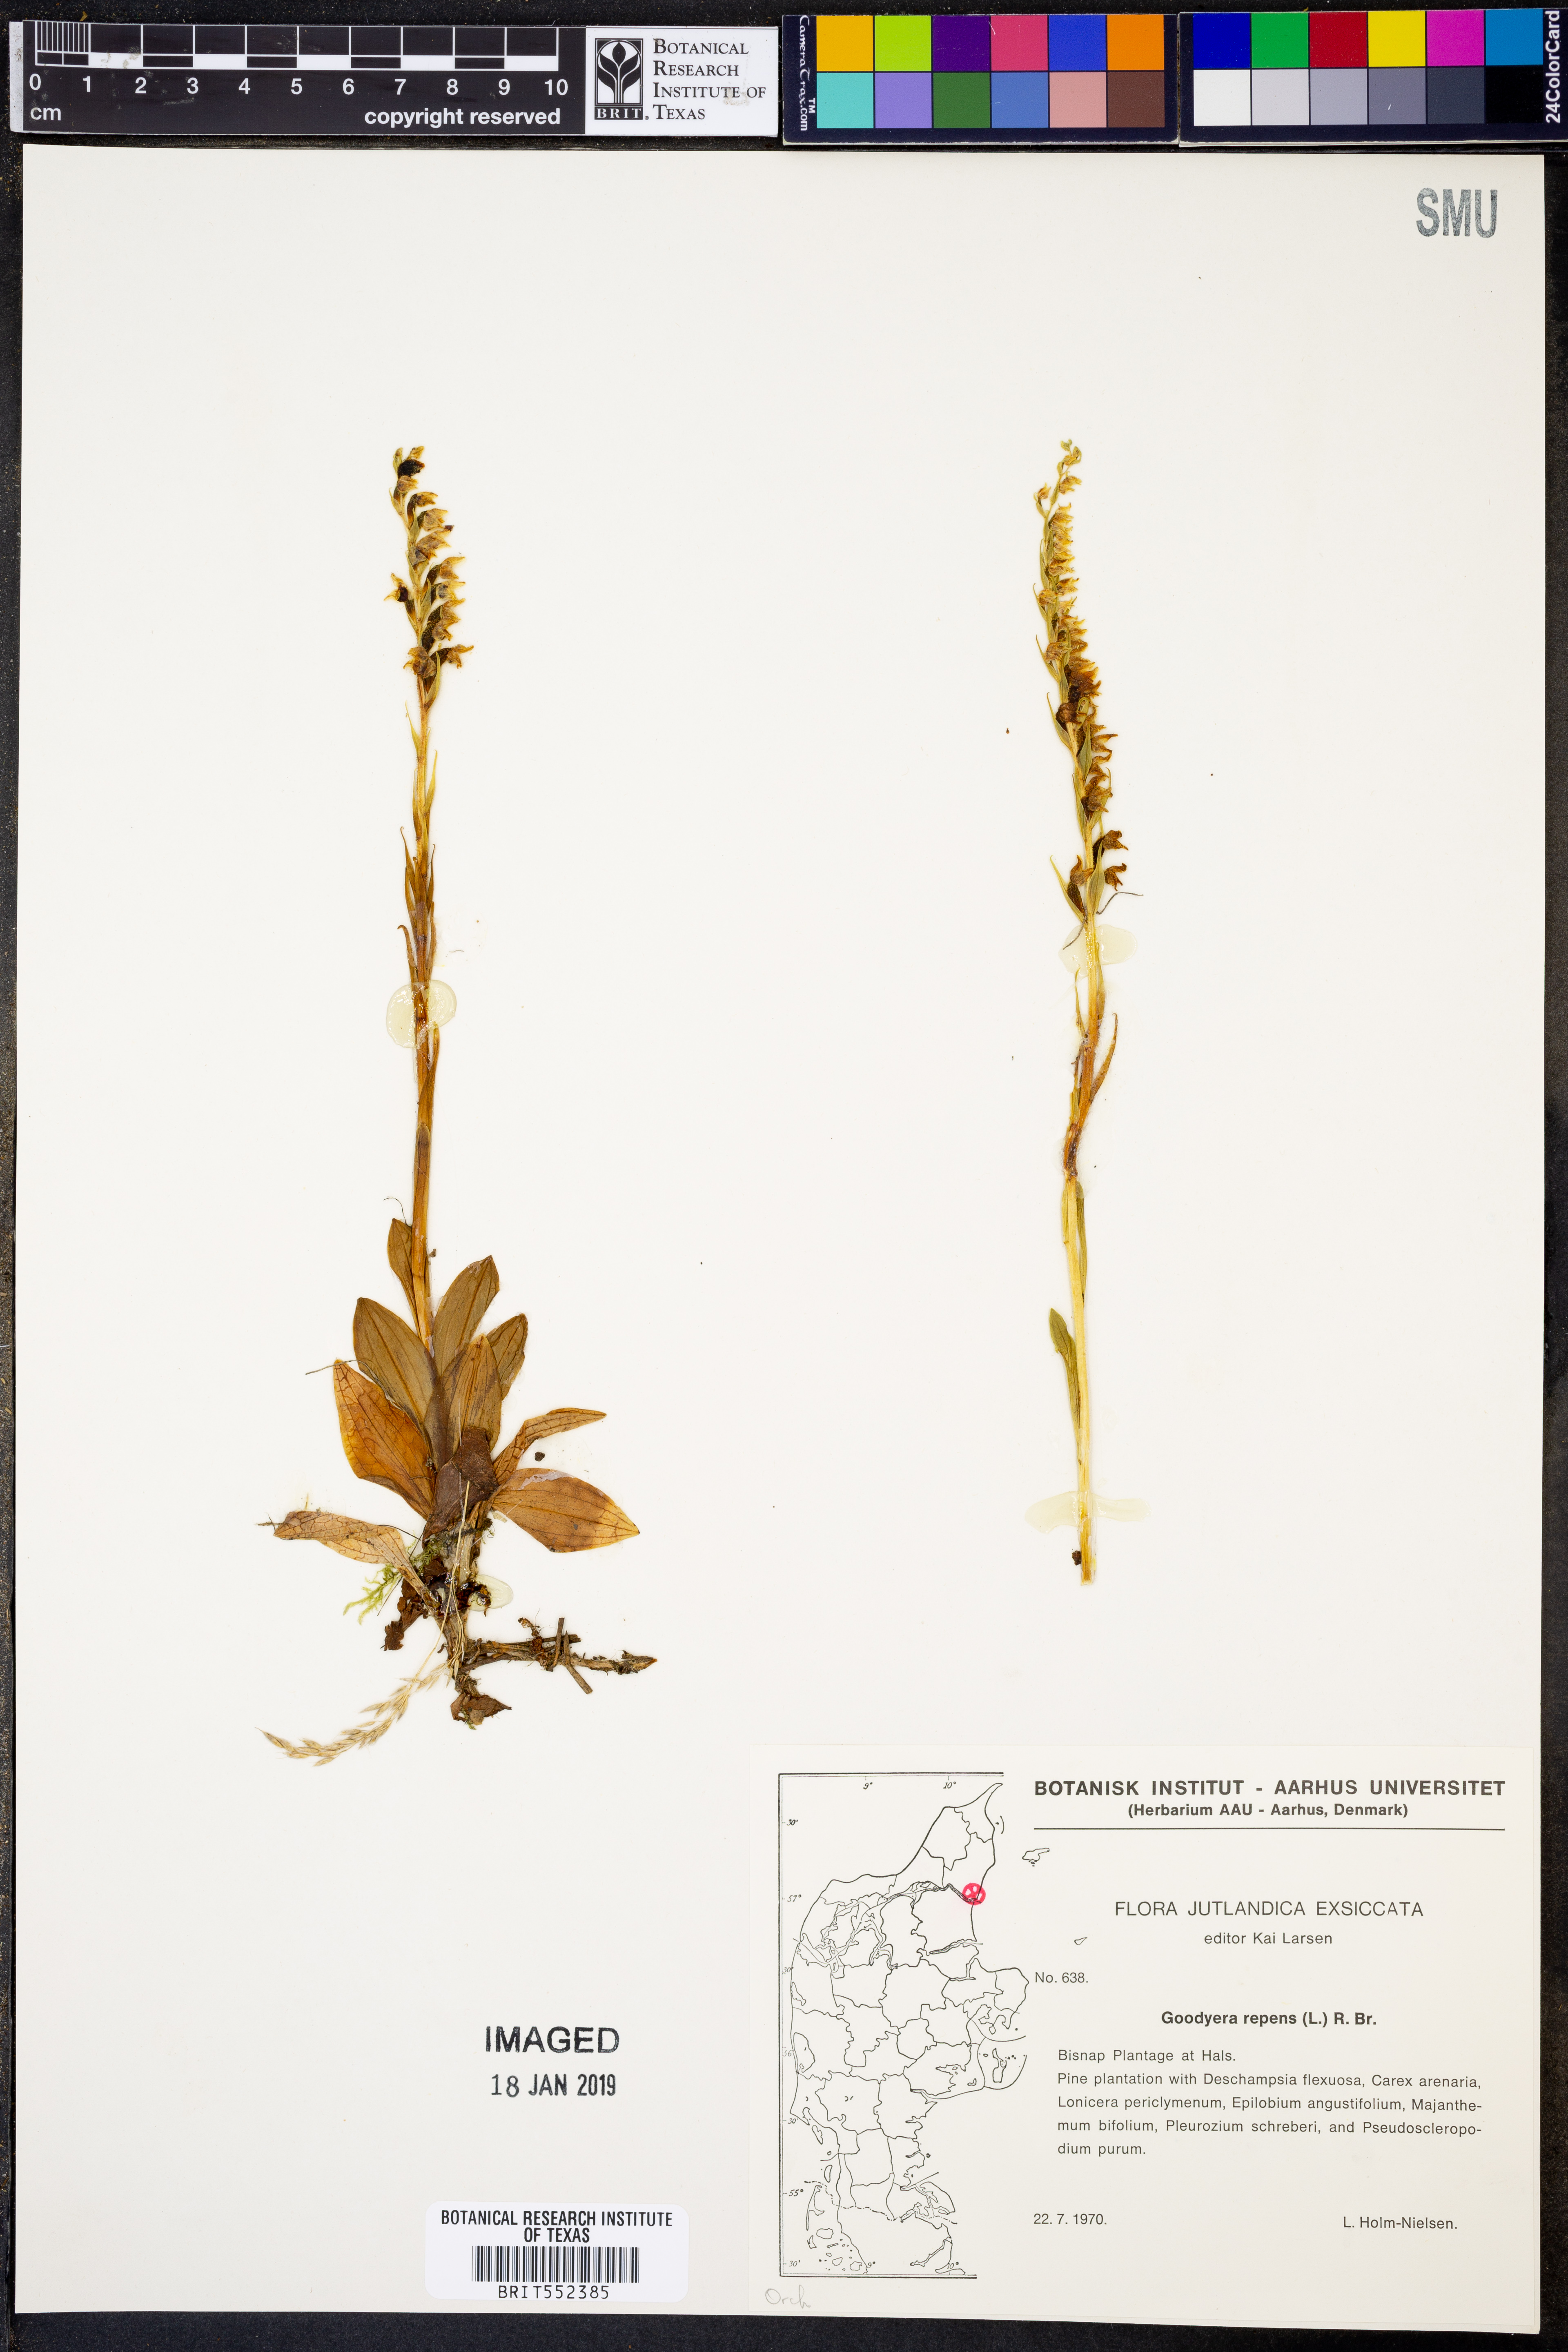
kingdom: Plantae
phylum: Tracheophyta
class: Liliopsida
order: Asparagales
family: Orchidaceae
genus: Goodyera
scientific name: Goodyera repens
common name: Creeping lady's-tresses
